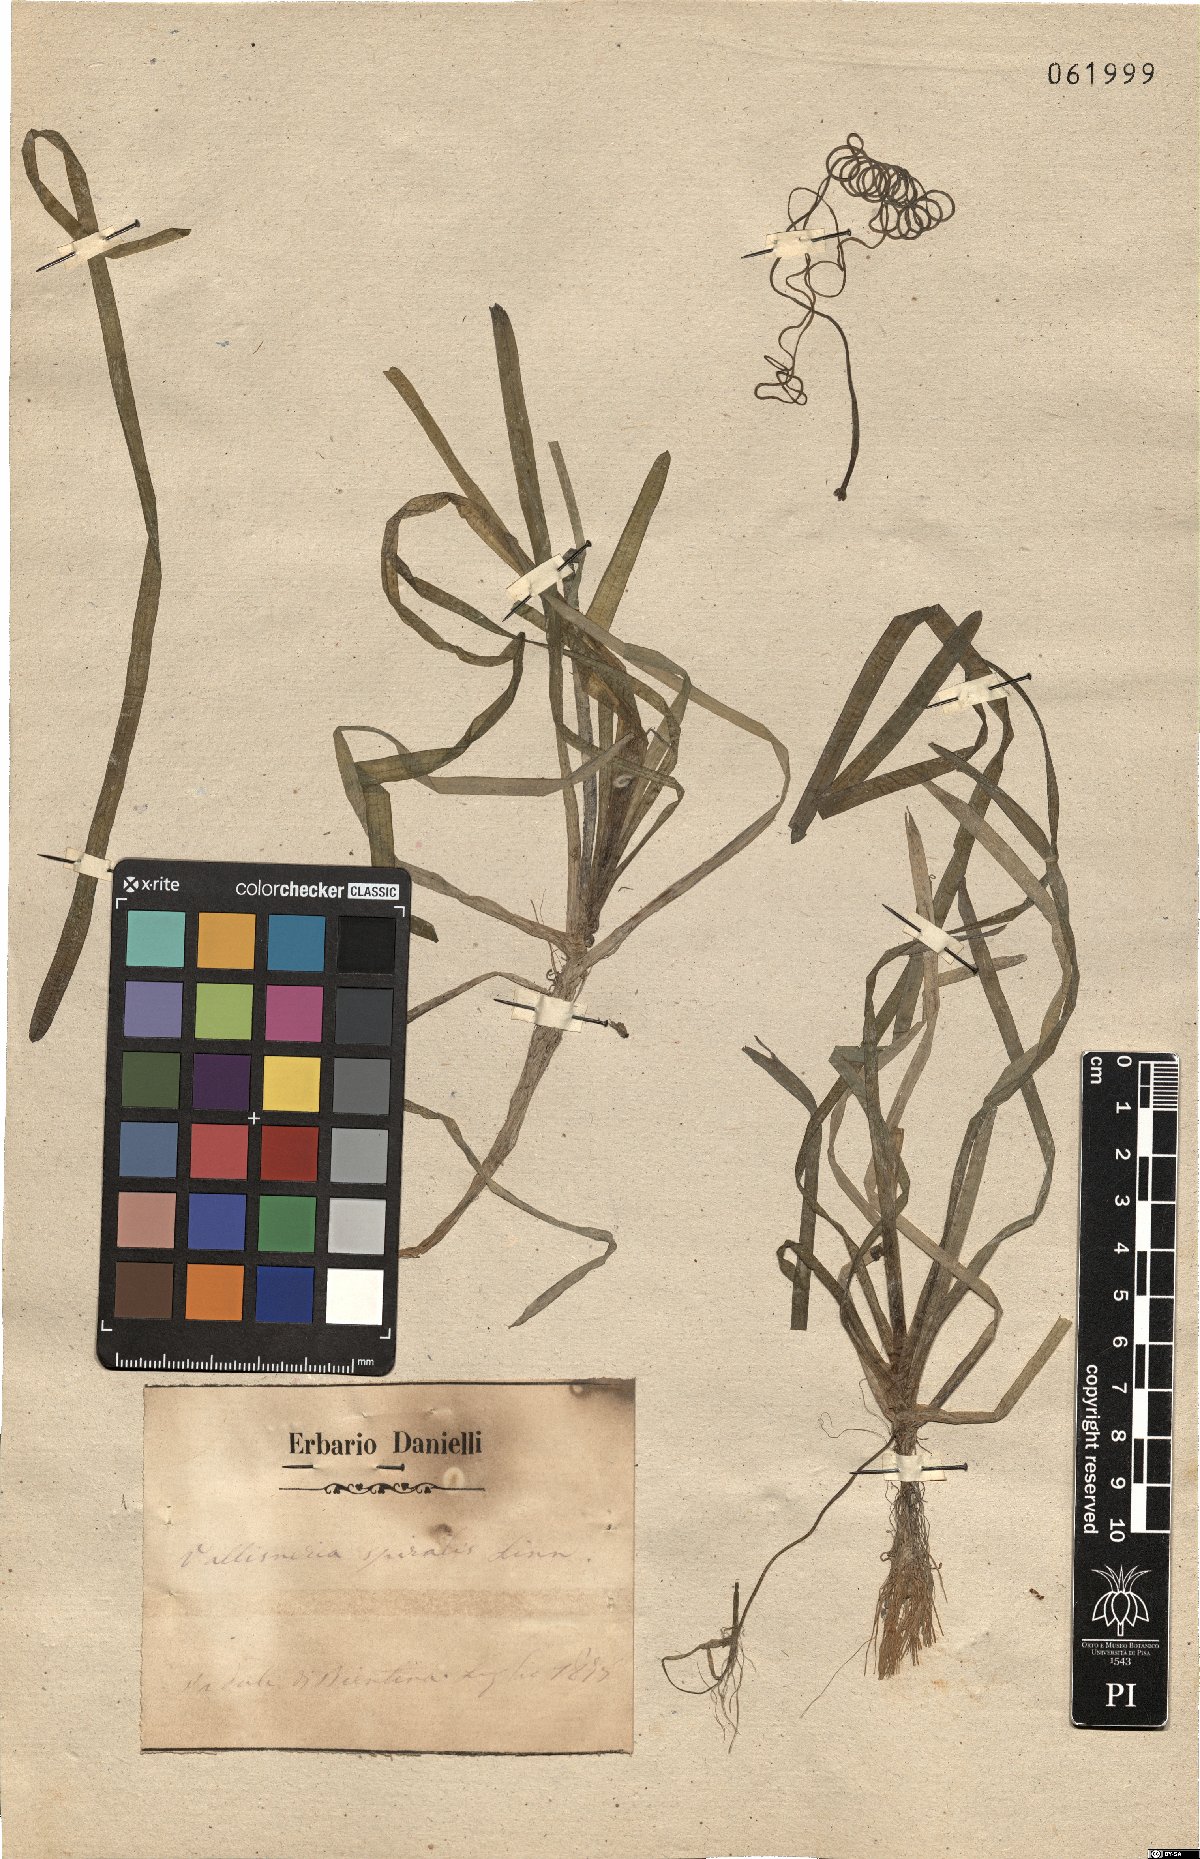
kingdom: Plantae
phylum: Tracheophyta
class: Liliopsida
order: Alismatales
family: Hydrocharitaceae
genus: Vallisneria
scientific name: Vallisneria spiralis
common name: Tapegrass
